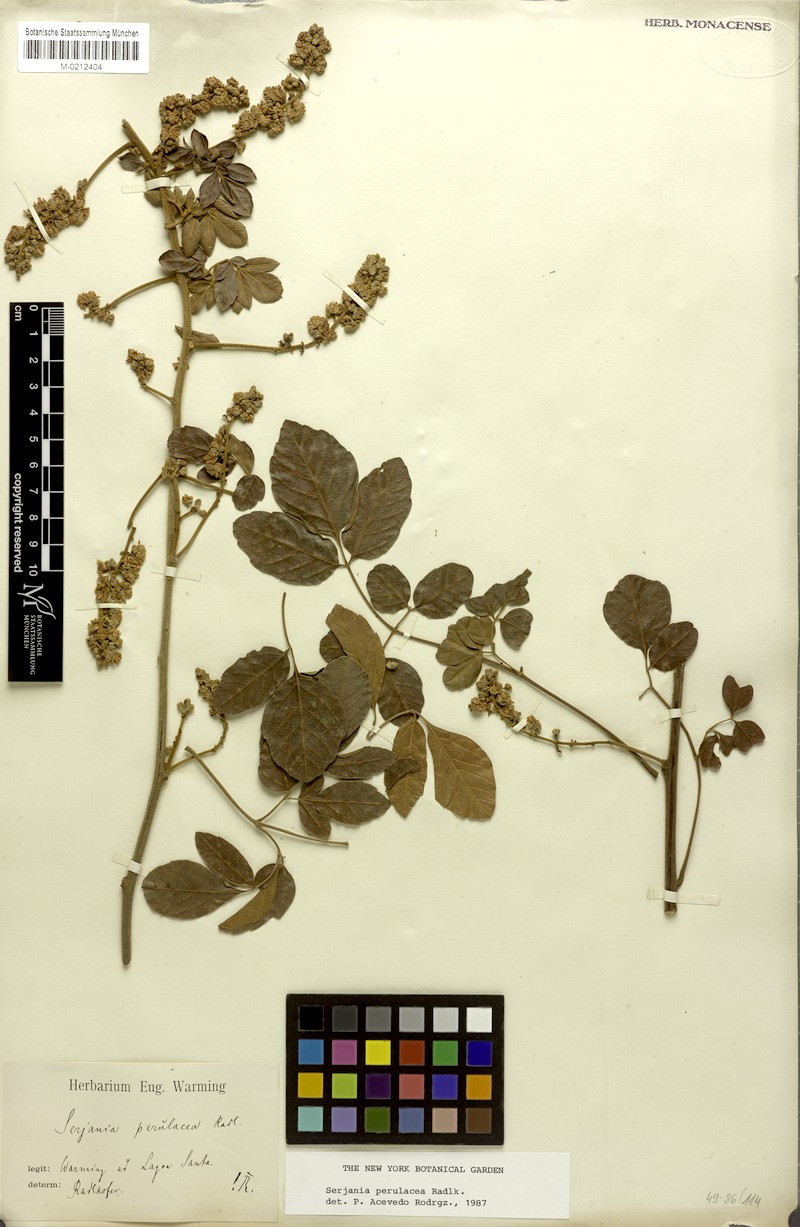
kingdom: Plantae
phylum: Tracheophyta
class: Magnoliopsida
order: Sapindales
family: Sapindaceae
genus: Serjania
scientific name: Serjania perulacea
